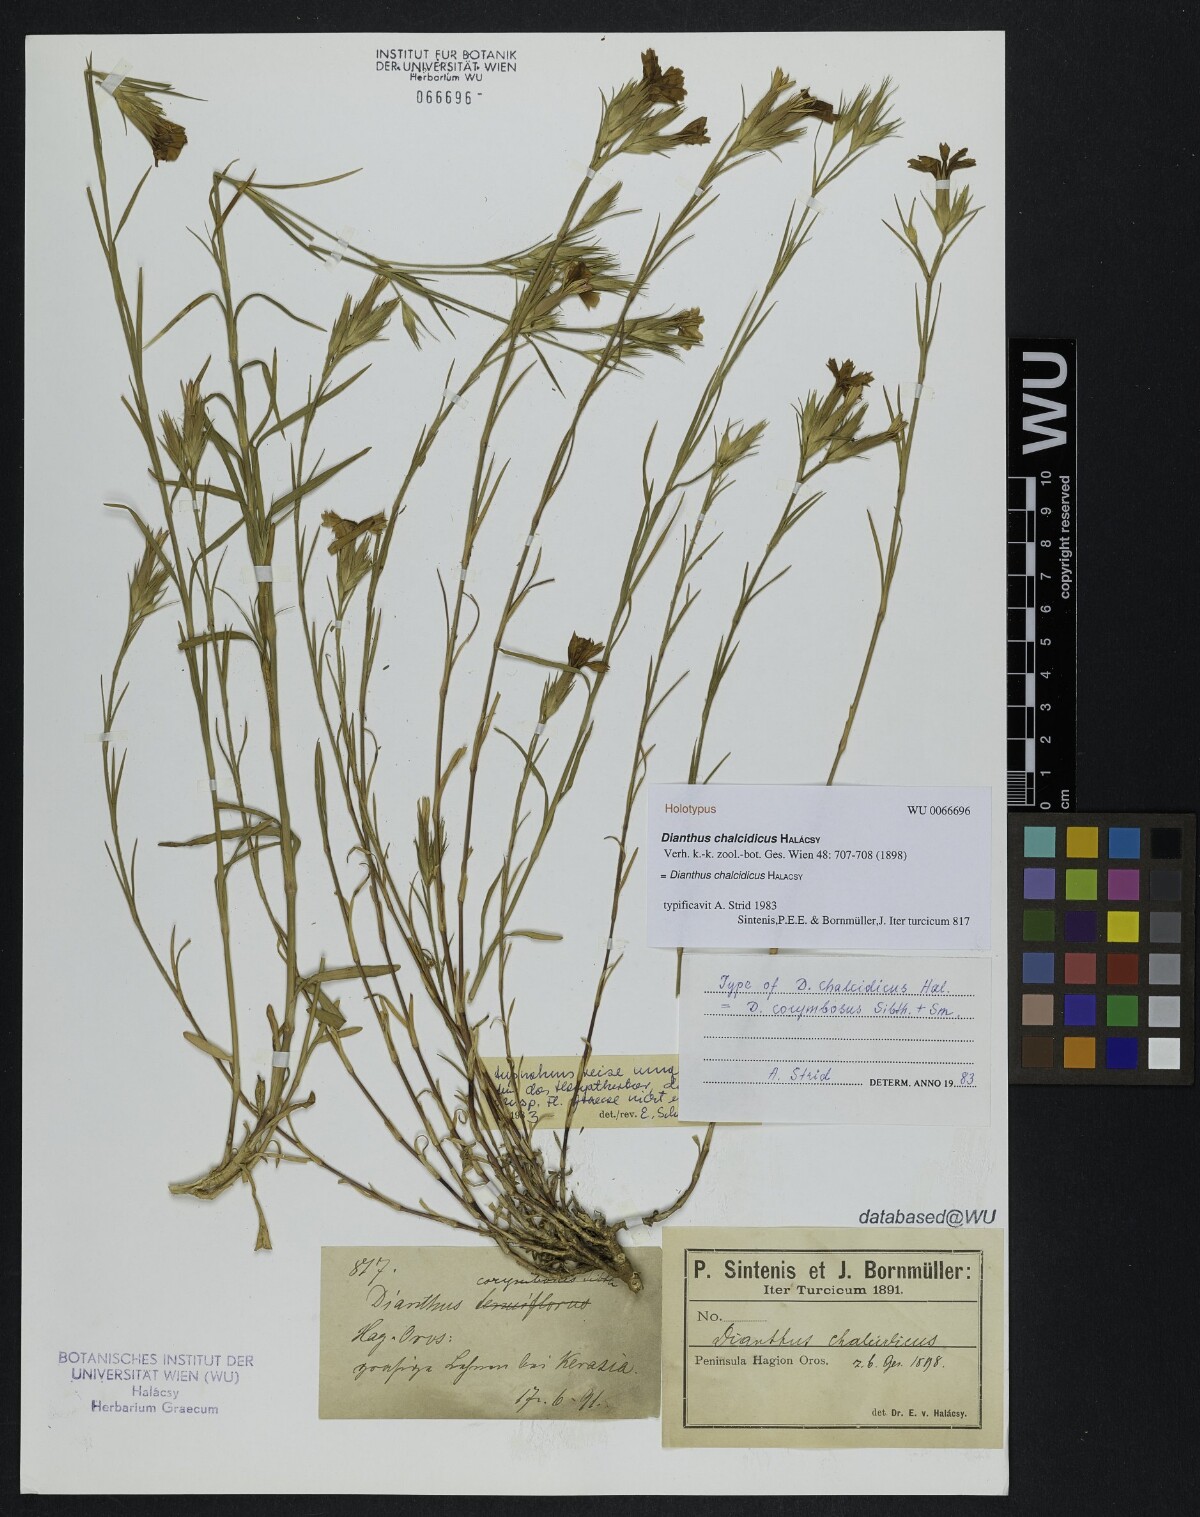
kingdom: Plantae
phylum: Tracheophyta
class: Magnoliopsida
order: Caryophyllales
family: Caryophyllaceae
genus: Dianthus
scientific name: Dianthus corymbosus
